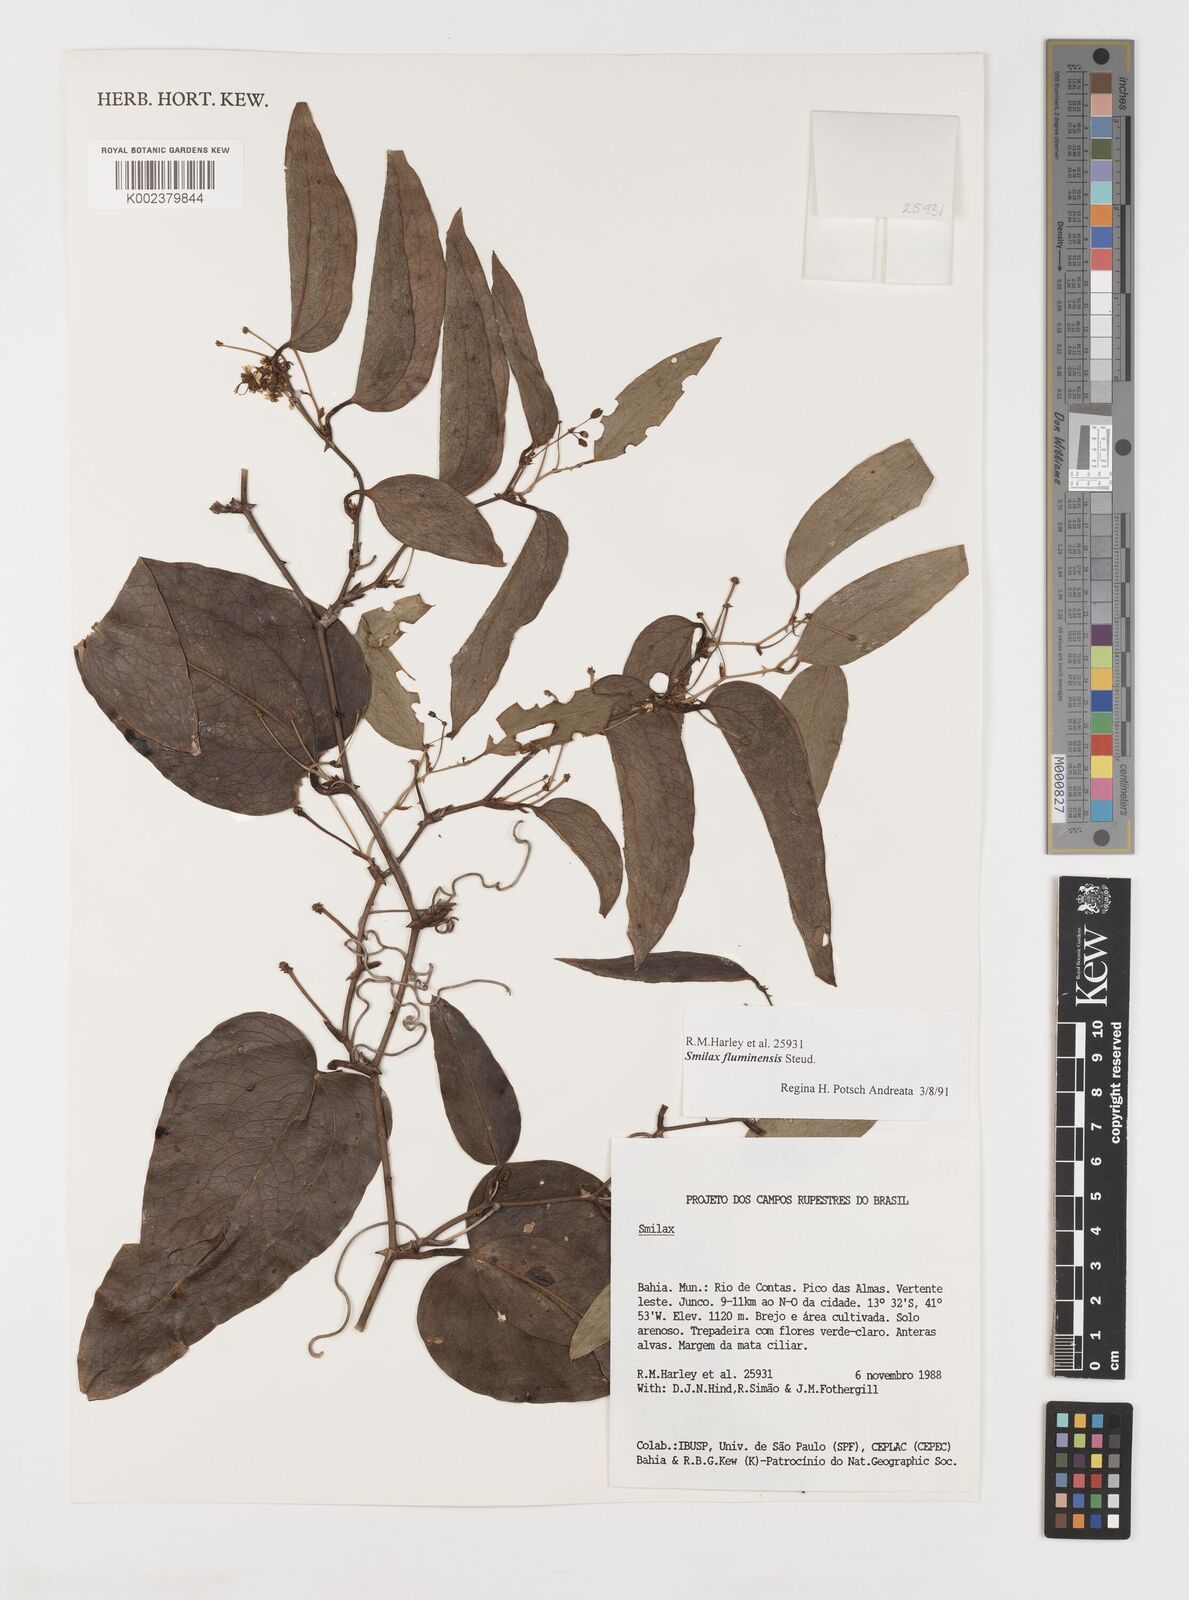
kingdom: Plantae
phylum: Tracheophyta
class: Liliopsida
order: Liliales
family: Smilacaceae
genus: Smilax
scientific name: Smilax fluminensis
